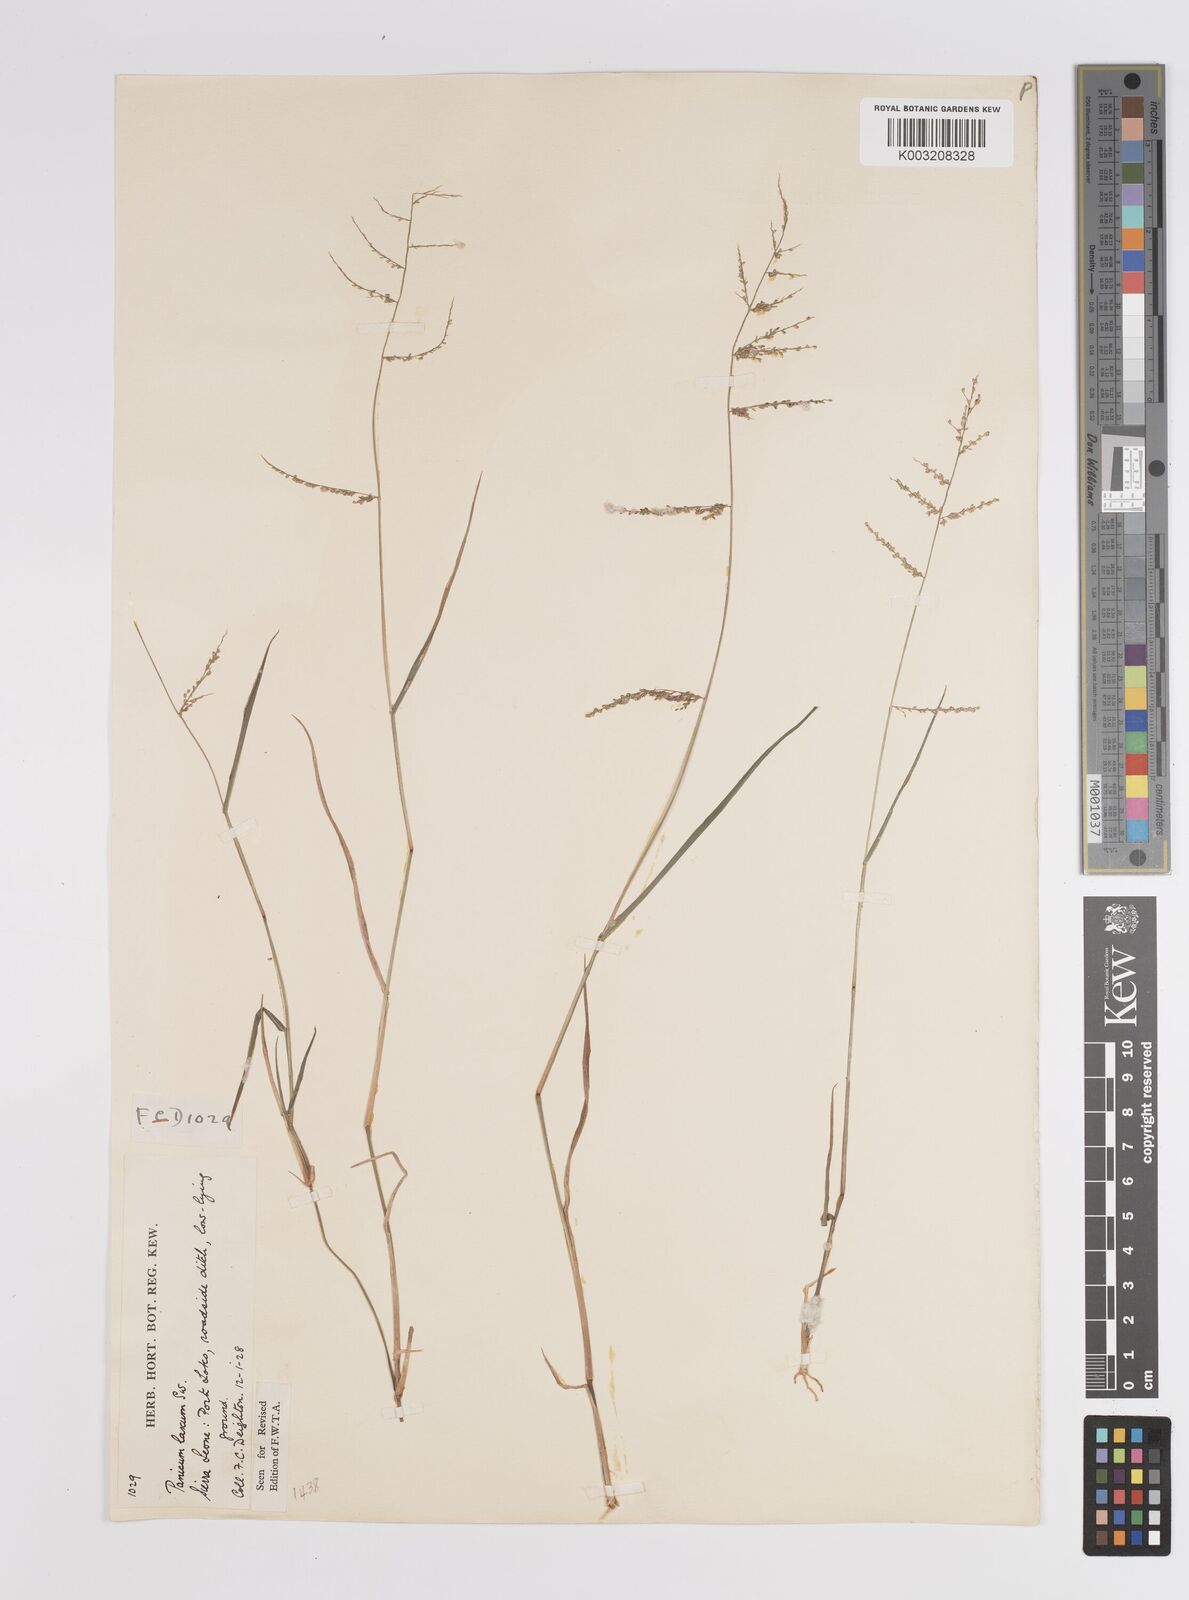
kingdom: Plantae
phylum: Tracheophyta
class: Liliopsida
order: Poales
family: Poaceae
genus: Steinchisma
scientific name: Steinchisma laxum
